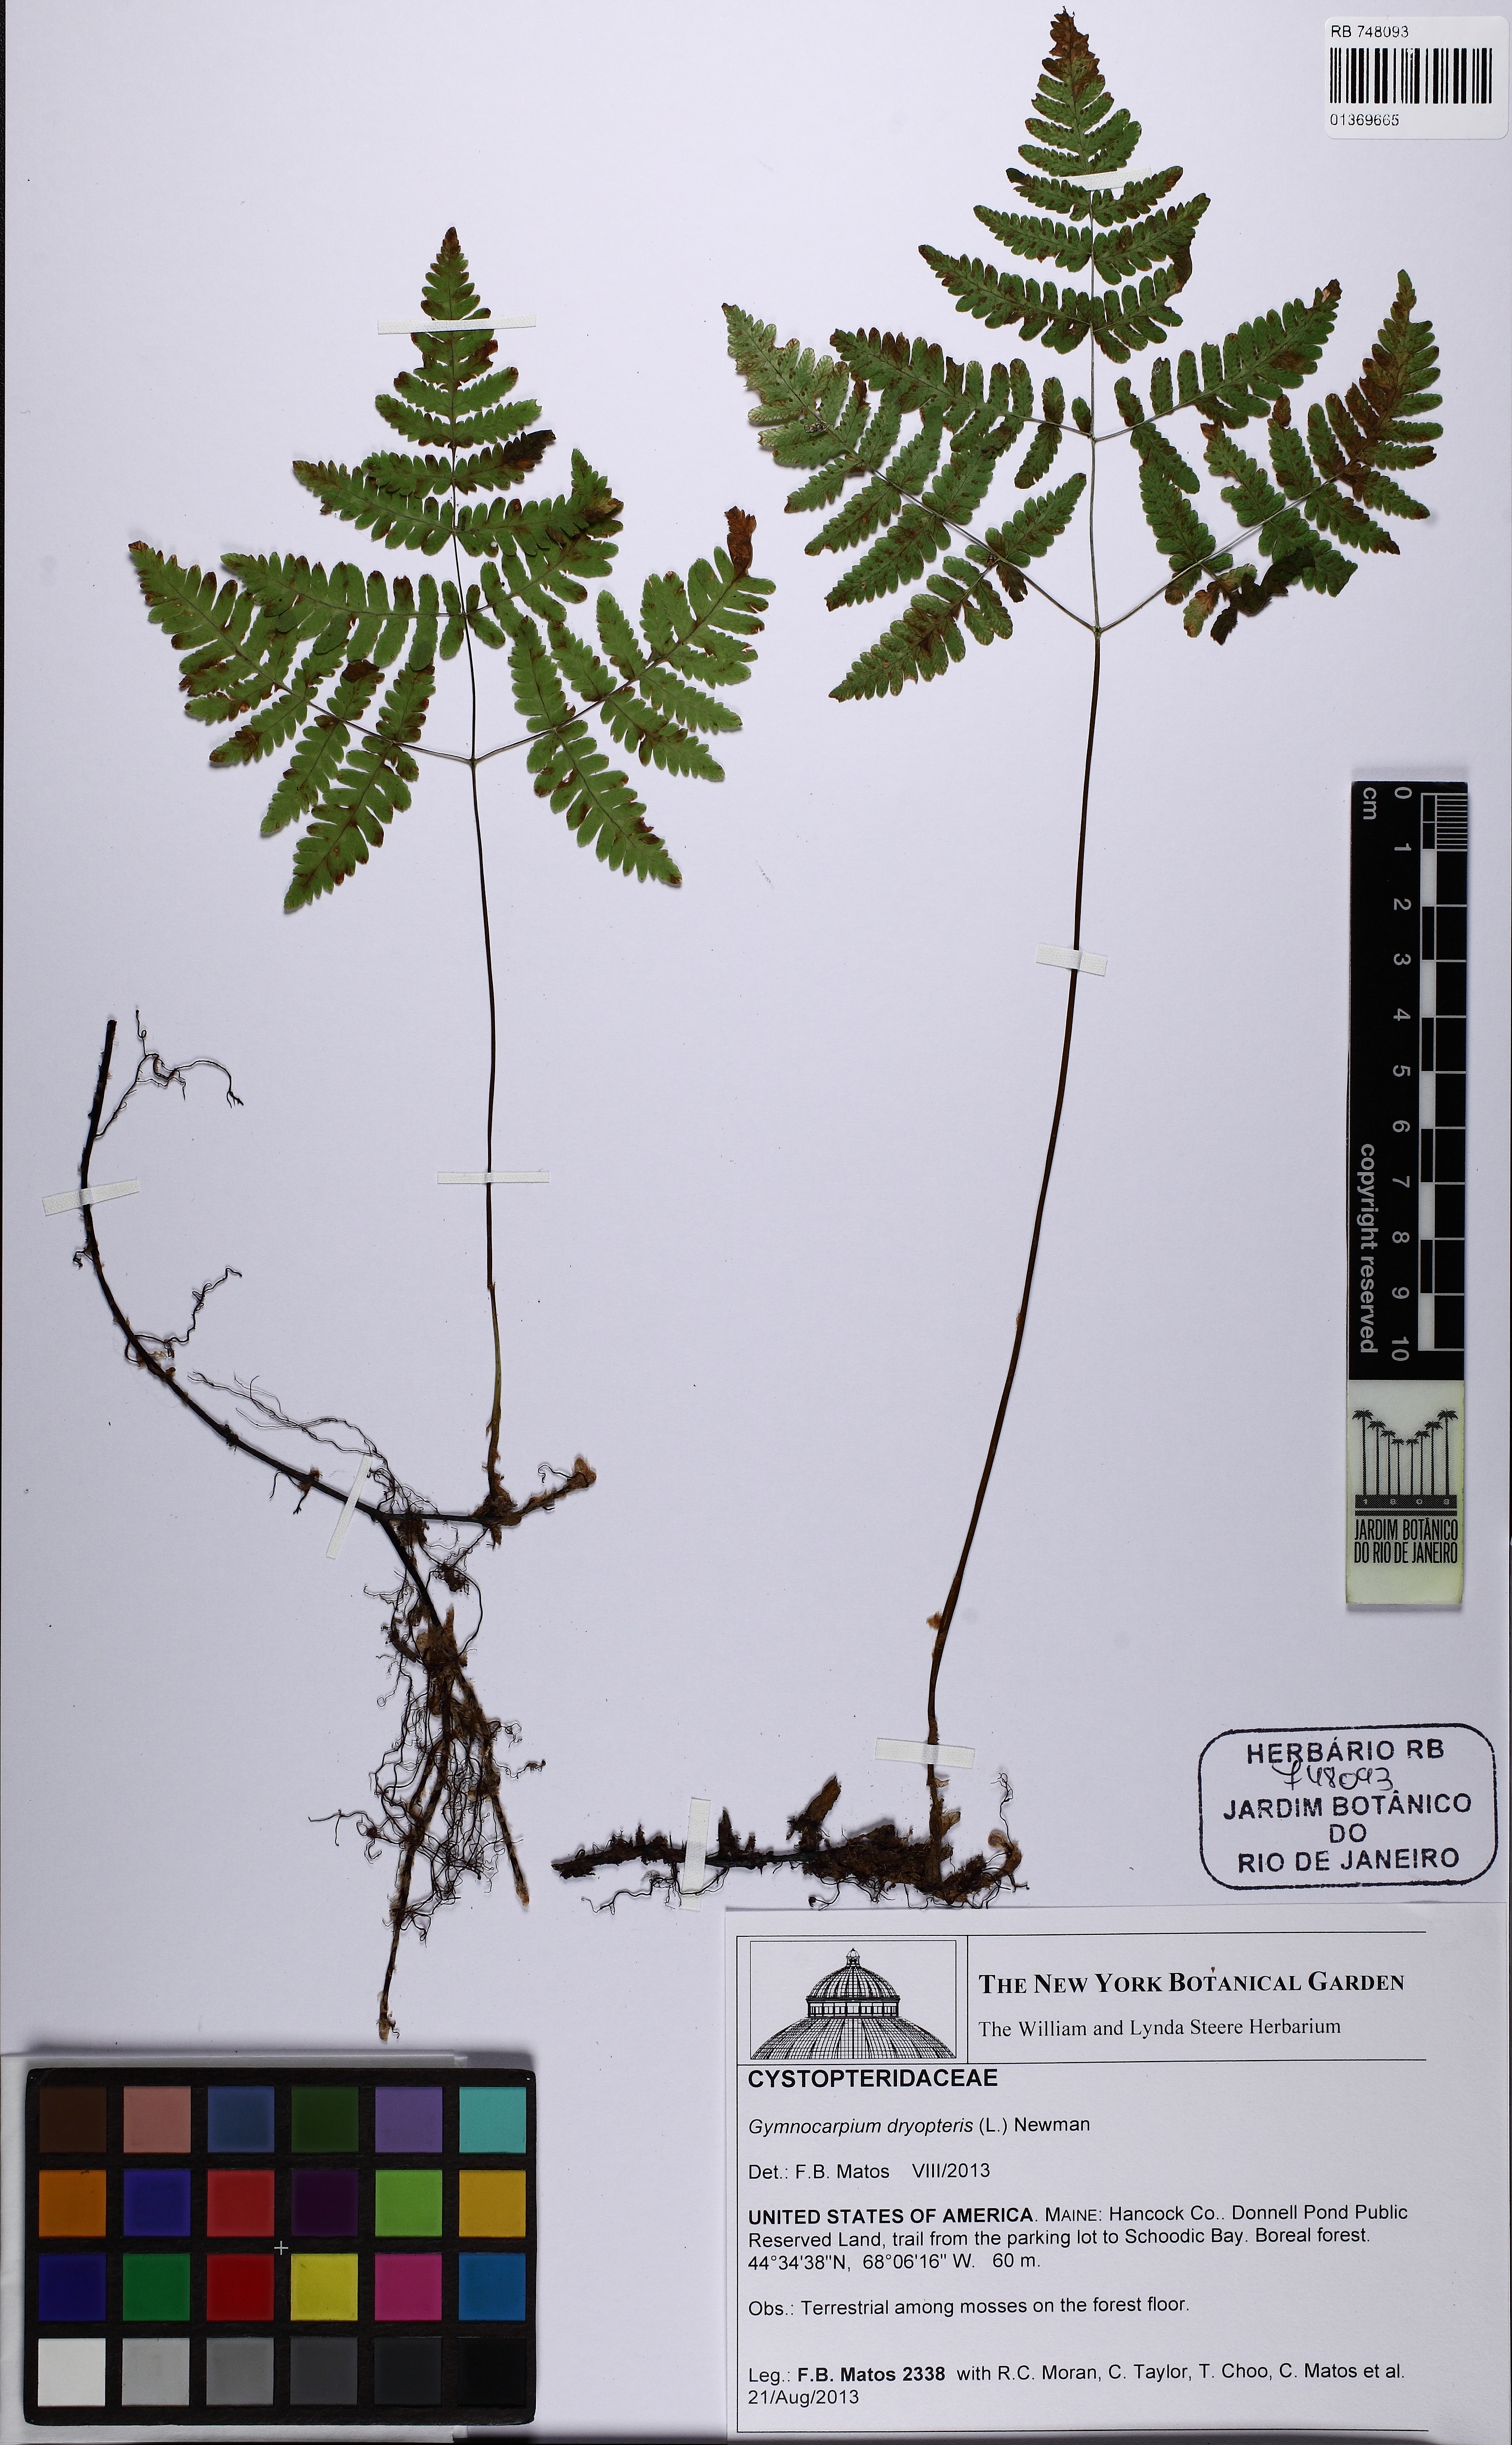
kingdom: Plantae
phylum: Tracheophyta
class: Polypodiopsida
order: Polypodiales
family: Cystopteridaceae
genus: Gymnocarpium
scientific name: Gymnocarpium dryopteris
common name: Oak fern
